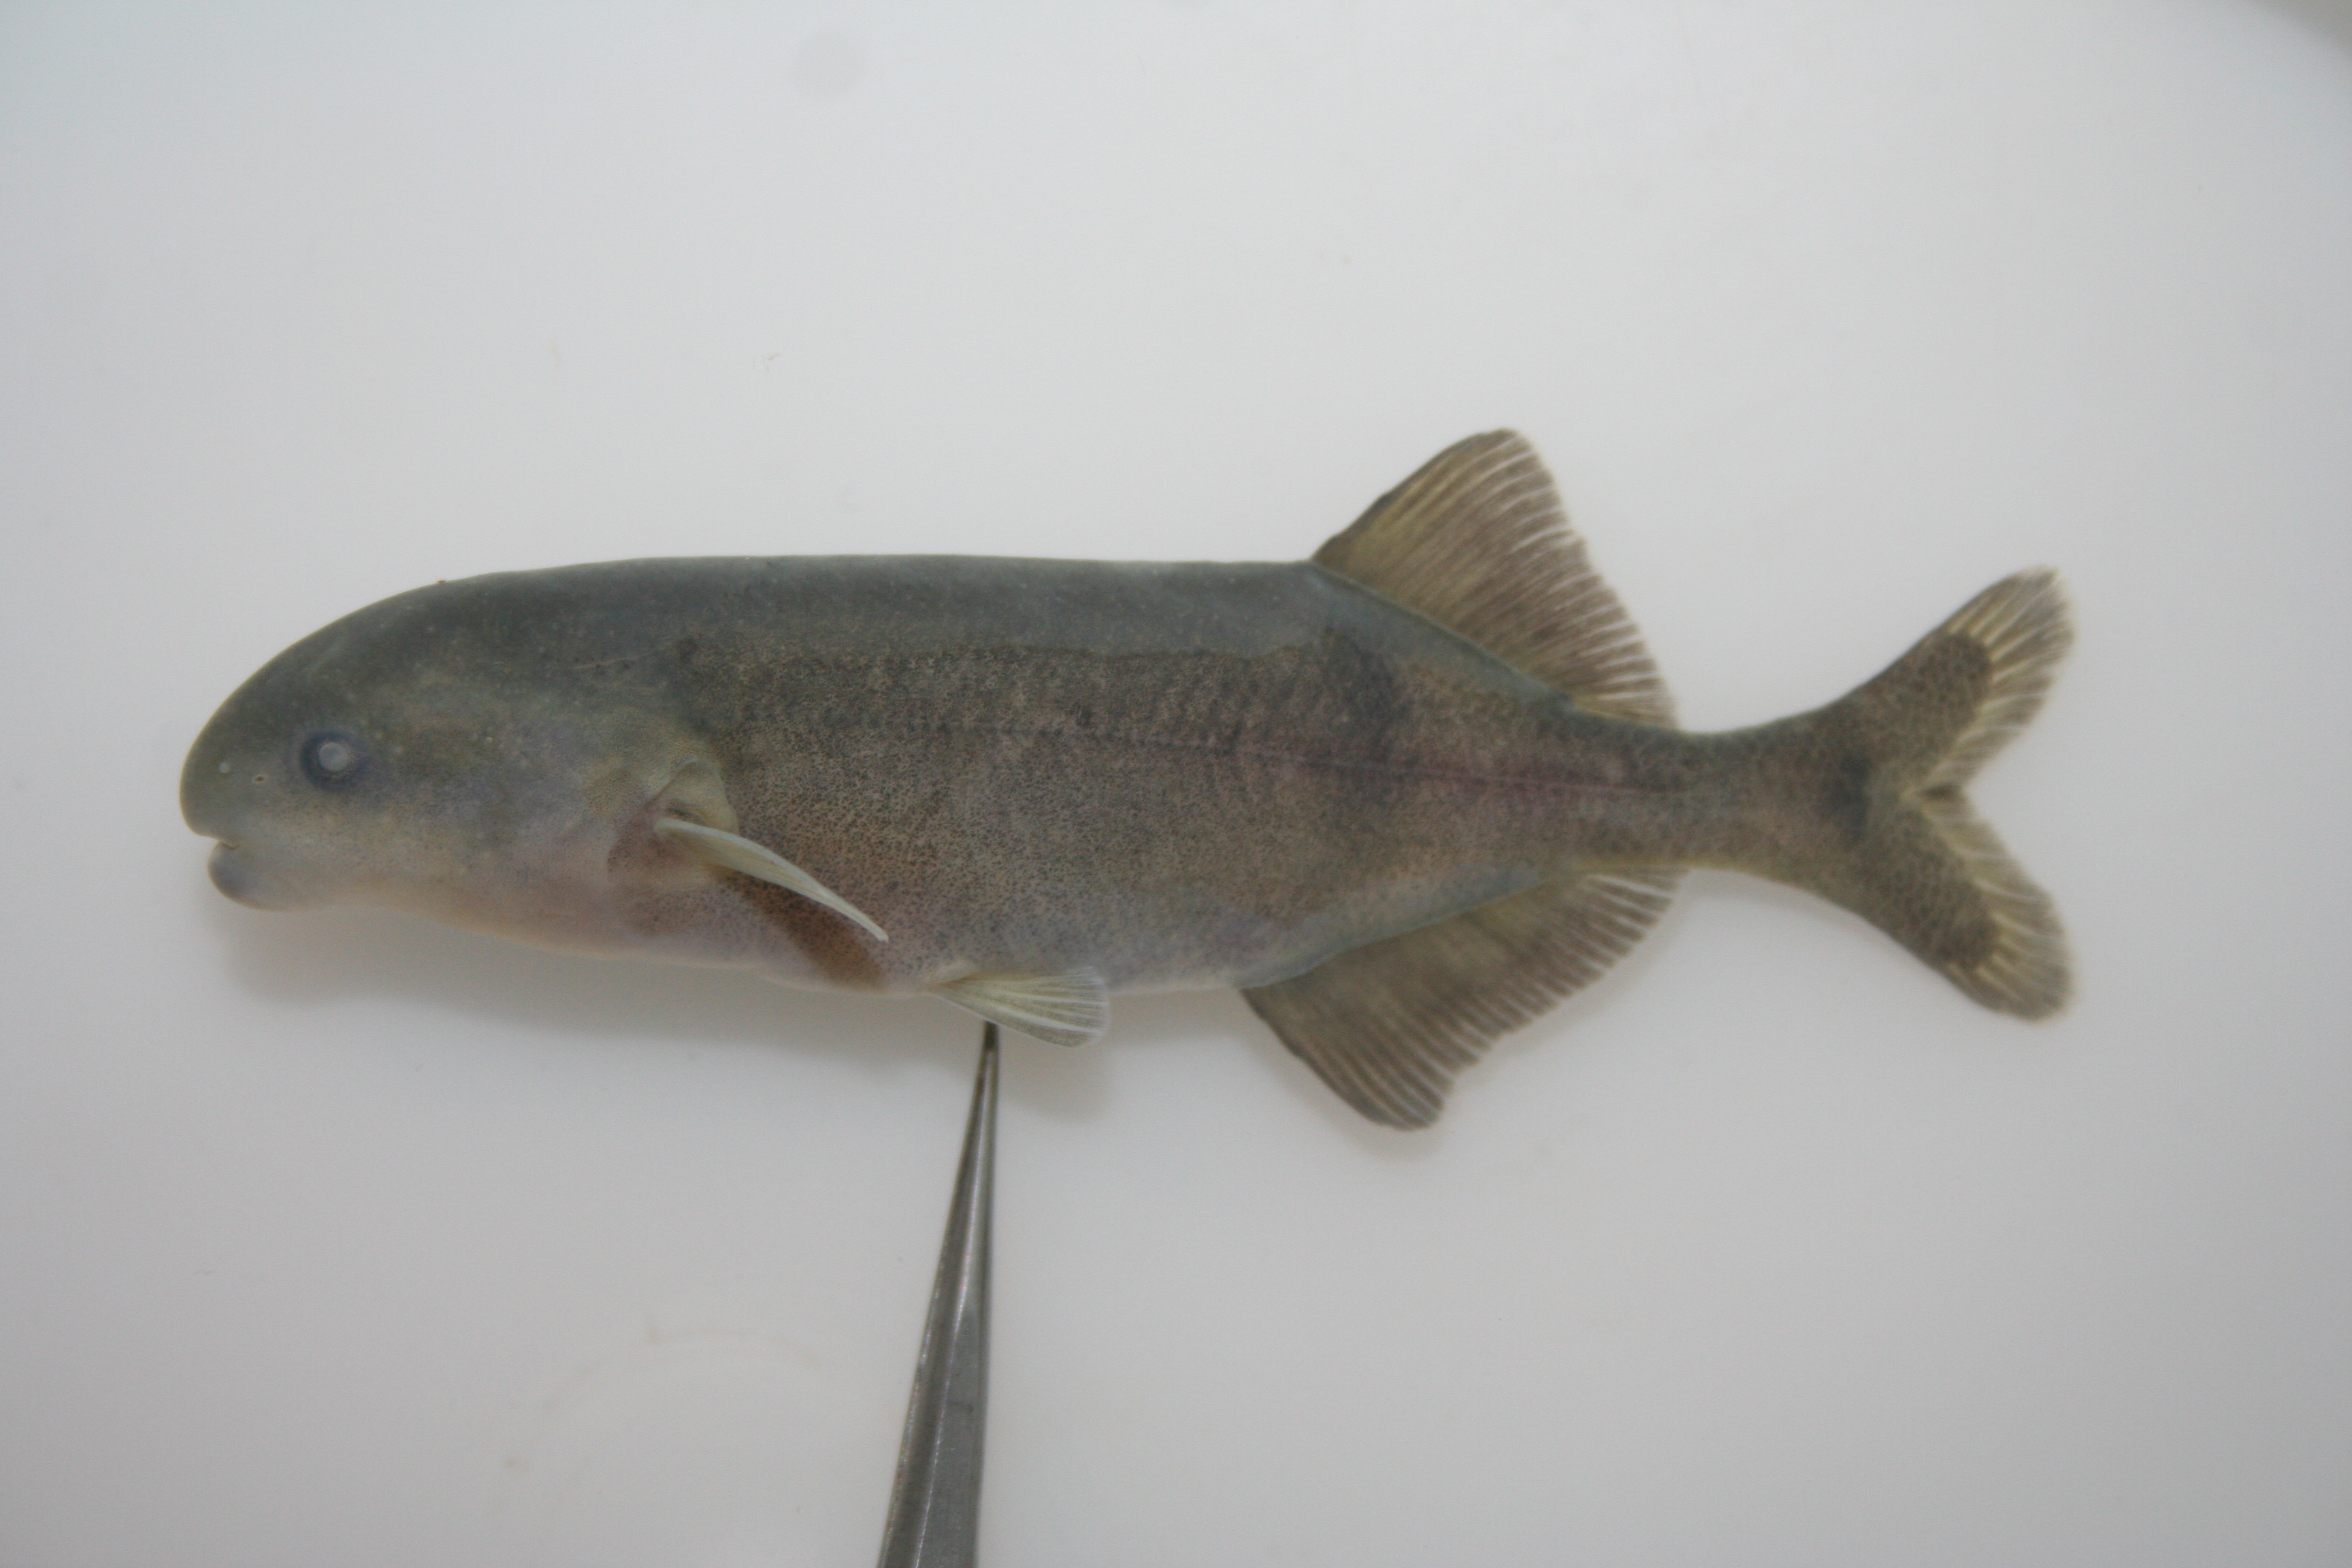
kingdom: Animalia
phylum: Chordata
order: Osteoglossiformes
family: Mormyridae
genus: Hippopotamyrus
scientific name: Hippopotamyrus
